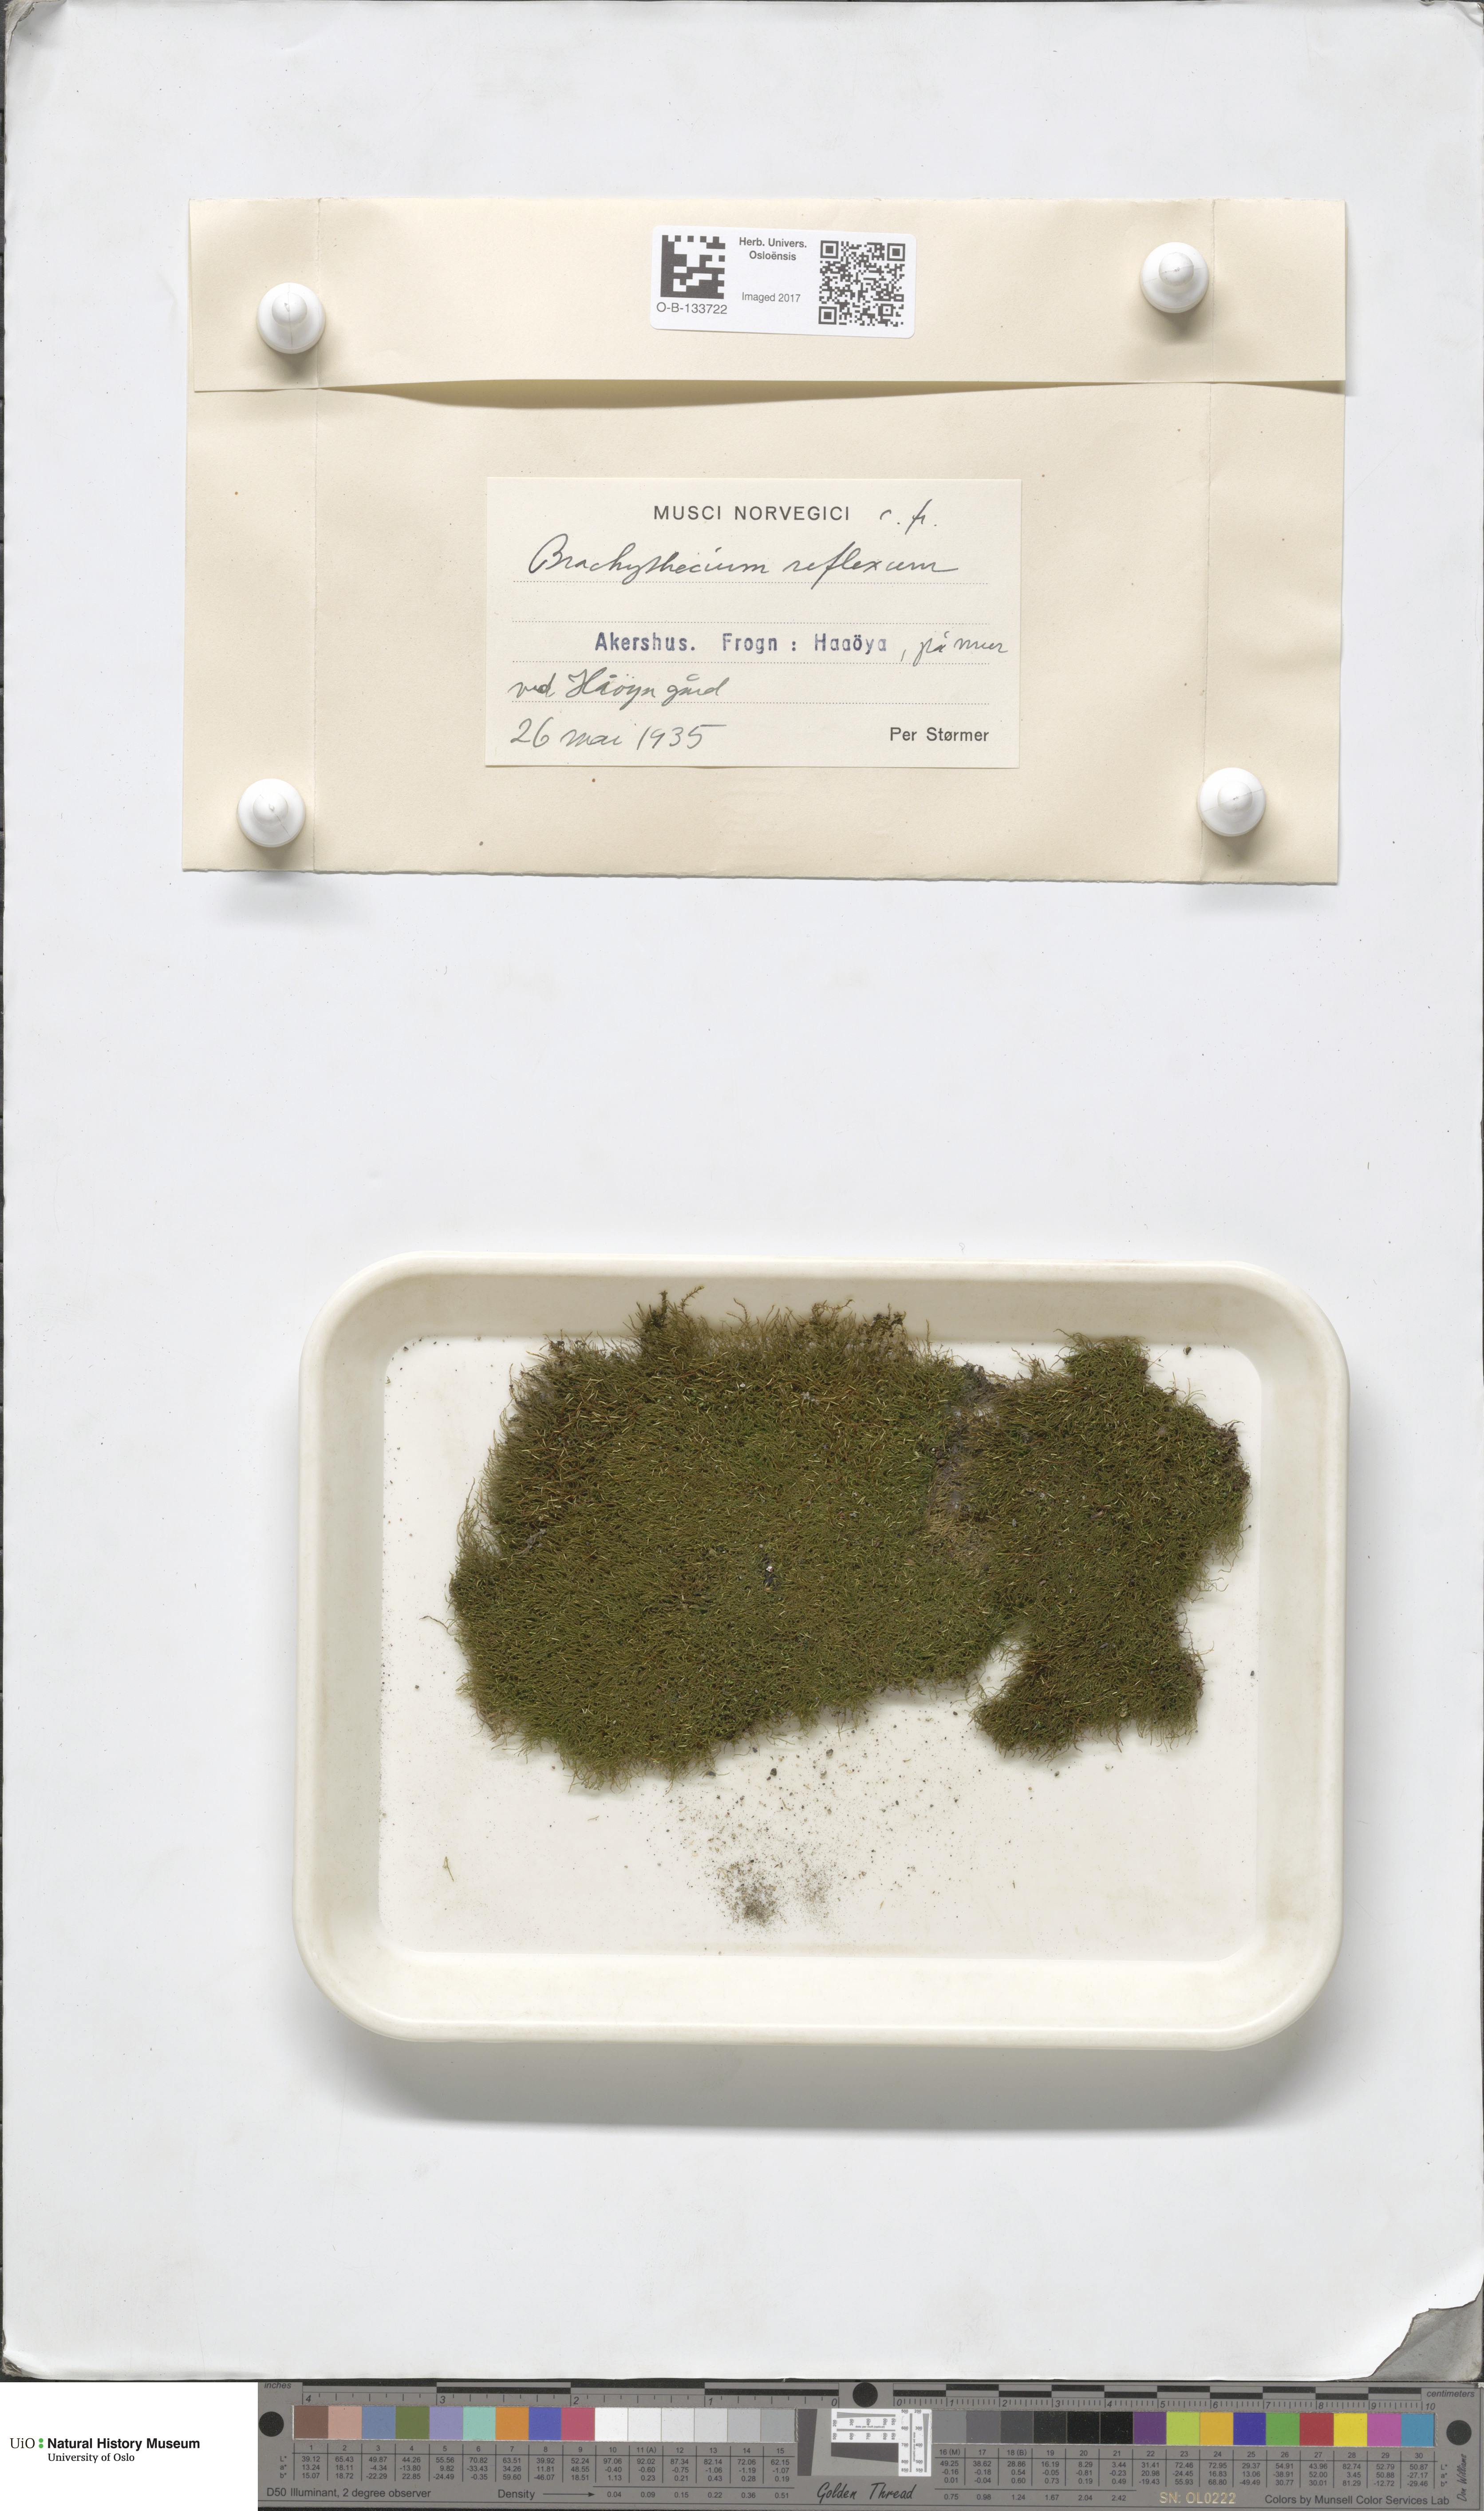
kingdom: Plantae
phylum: Bryophyta
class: Bryopsida
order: Hypnales
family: Brachytheciaceae
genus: Sciuro-hypnum
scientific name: Sciuro-hypnum reflexum
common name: Reflexed feather-moss
